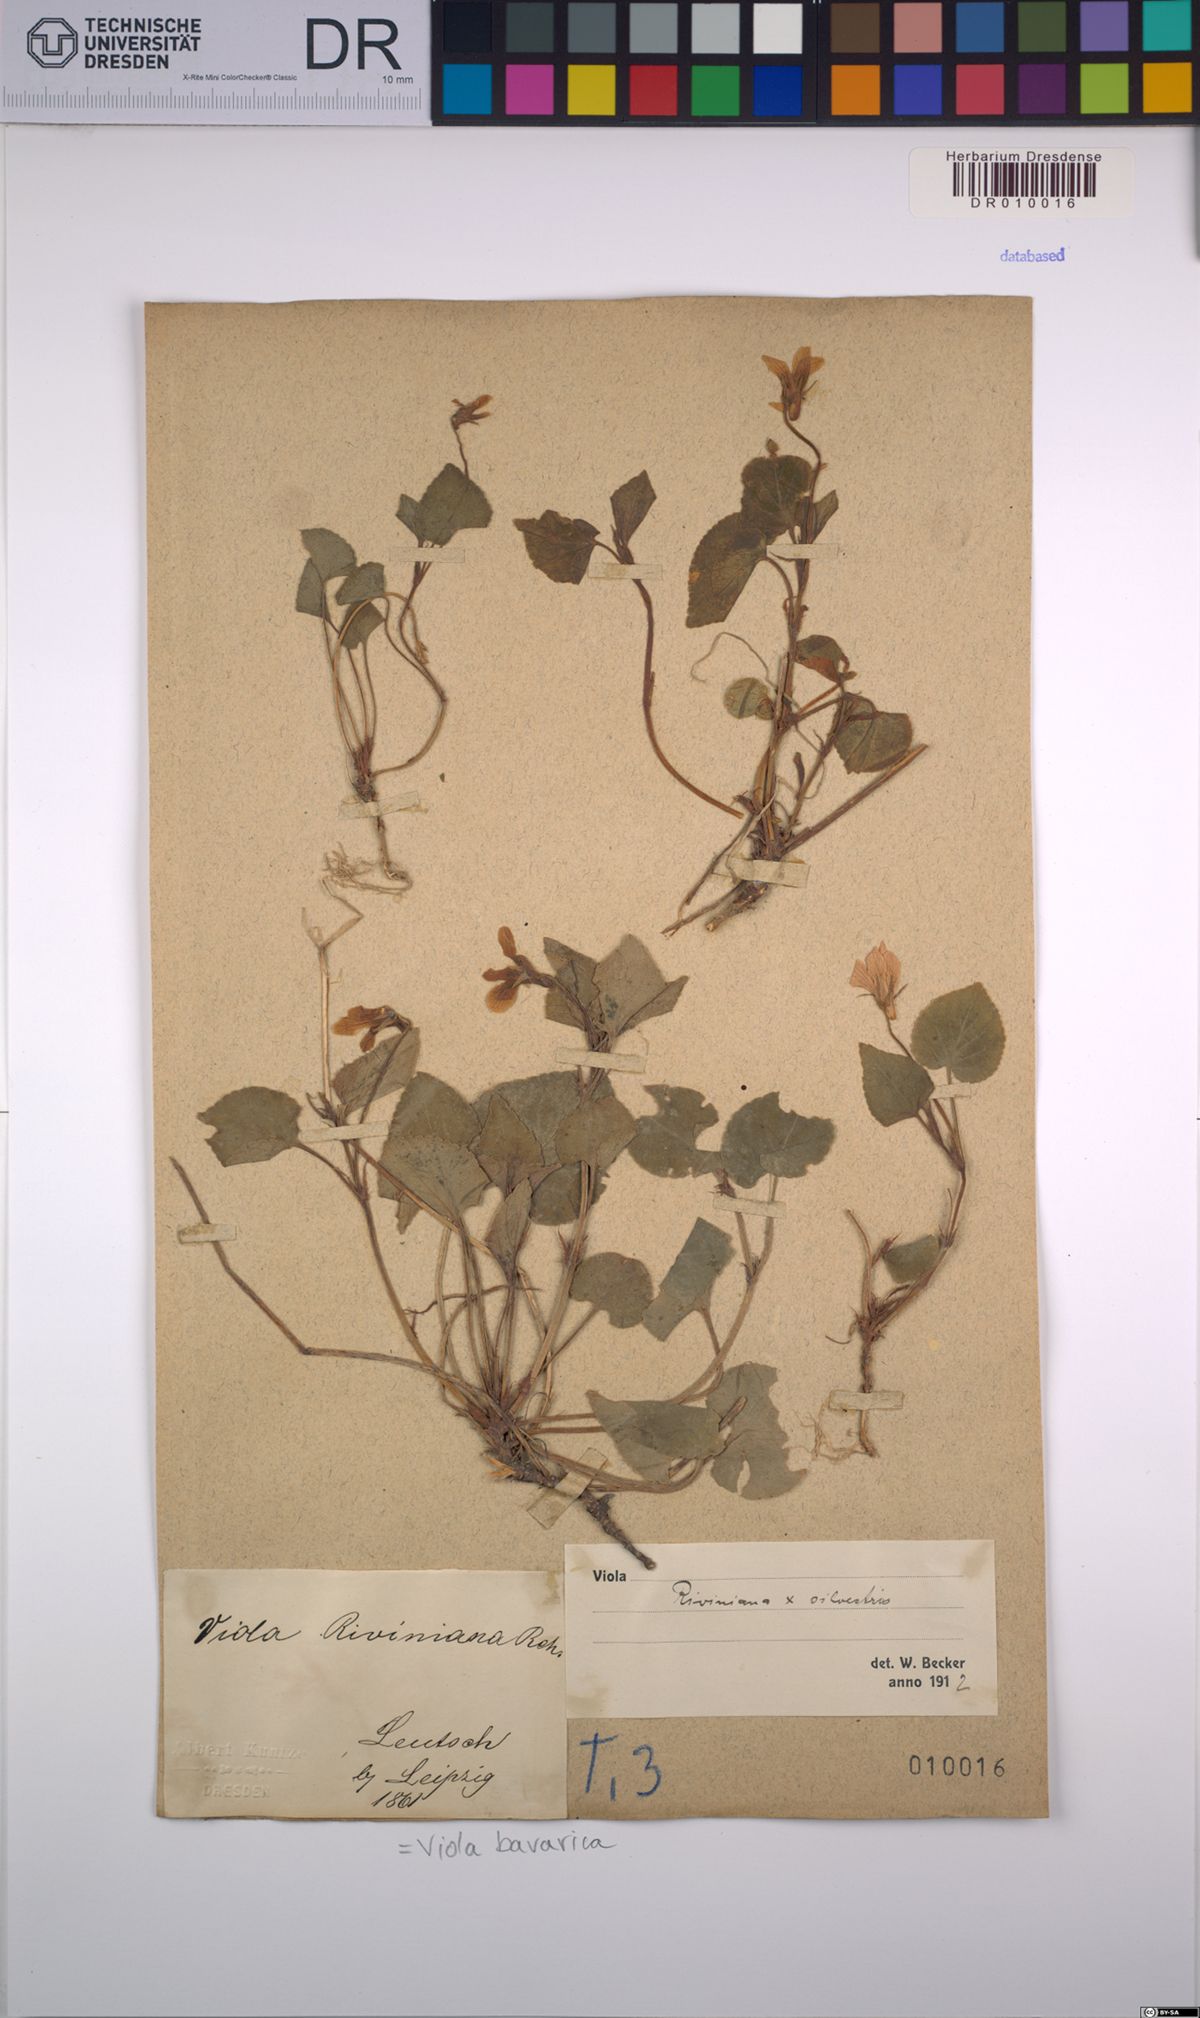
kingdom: Plantae
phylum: Tracheophyta
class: Magnoliopsida
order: Malpighiales
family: Violaceae
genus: Viola
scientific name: Viola bavarica
